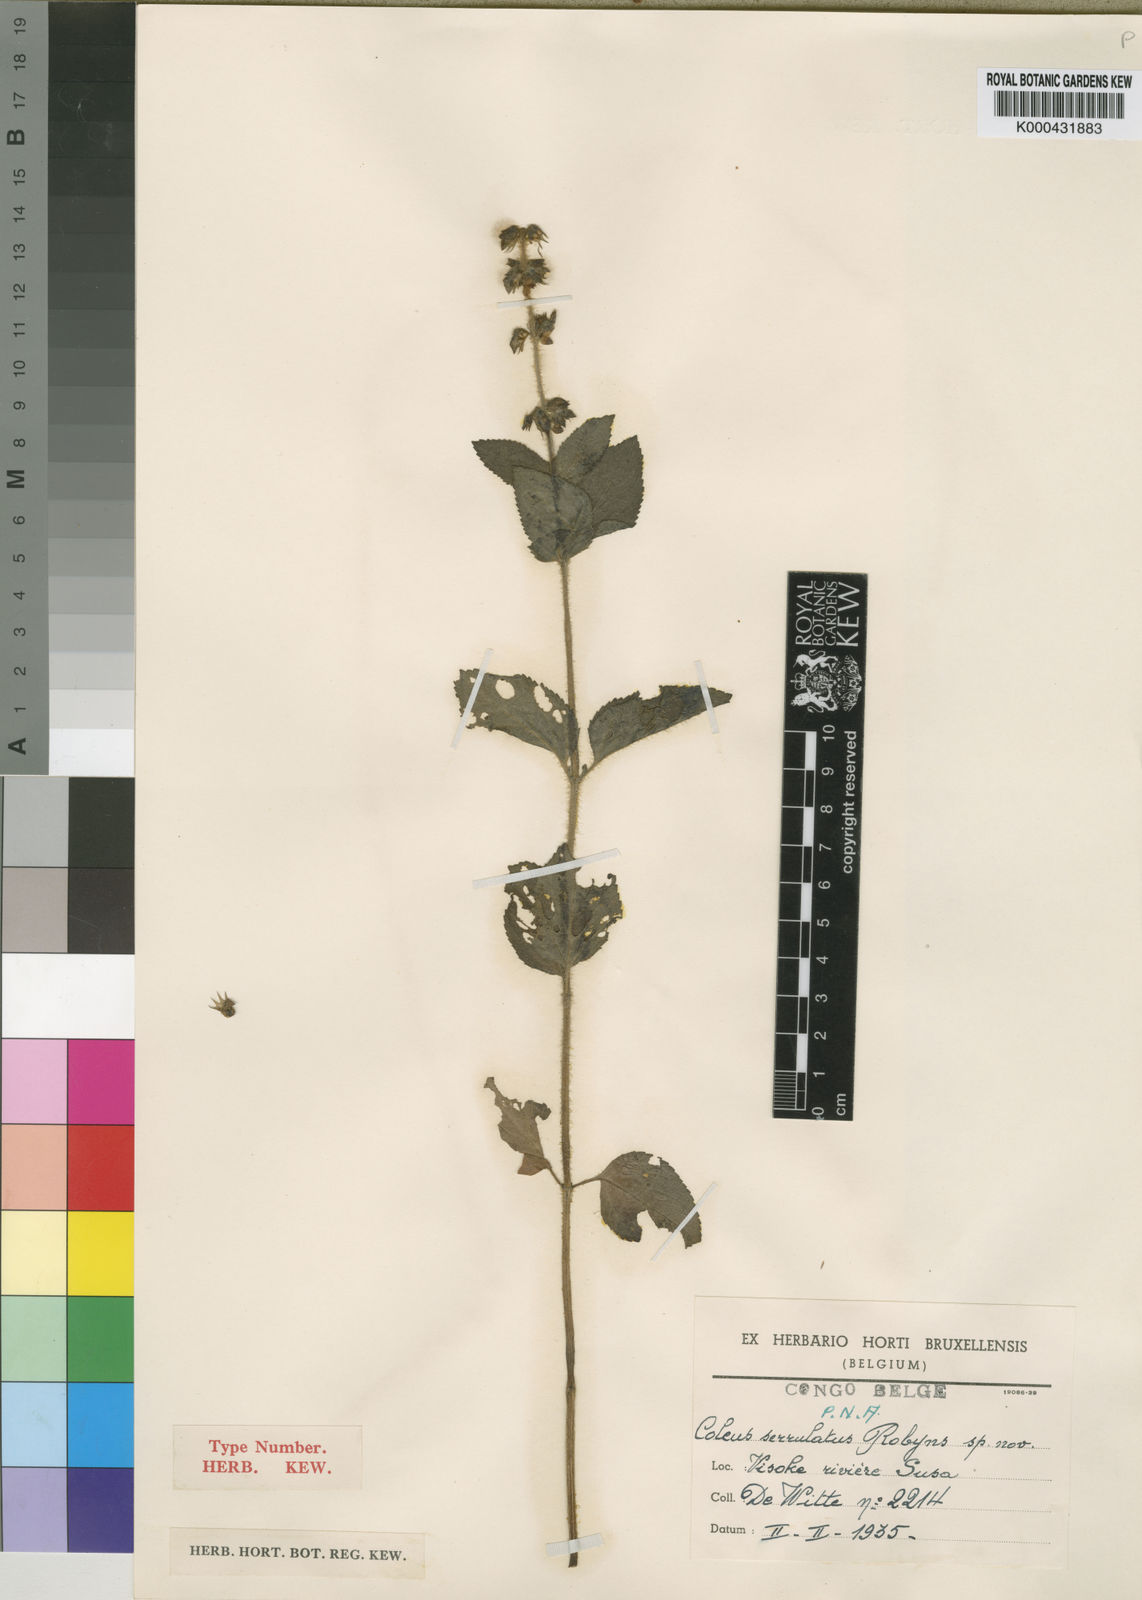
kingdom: Plantae
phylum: Tracheophyta
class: Magnoliopsida
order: Lamiales
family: Lamiaceae
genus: Coleus
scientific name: Coleus maculosus
